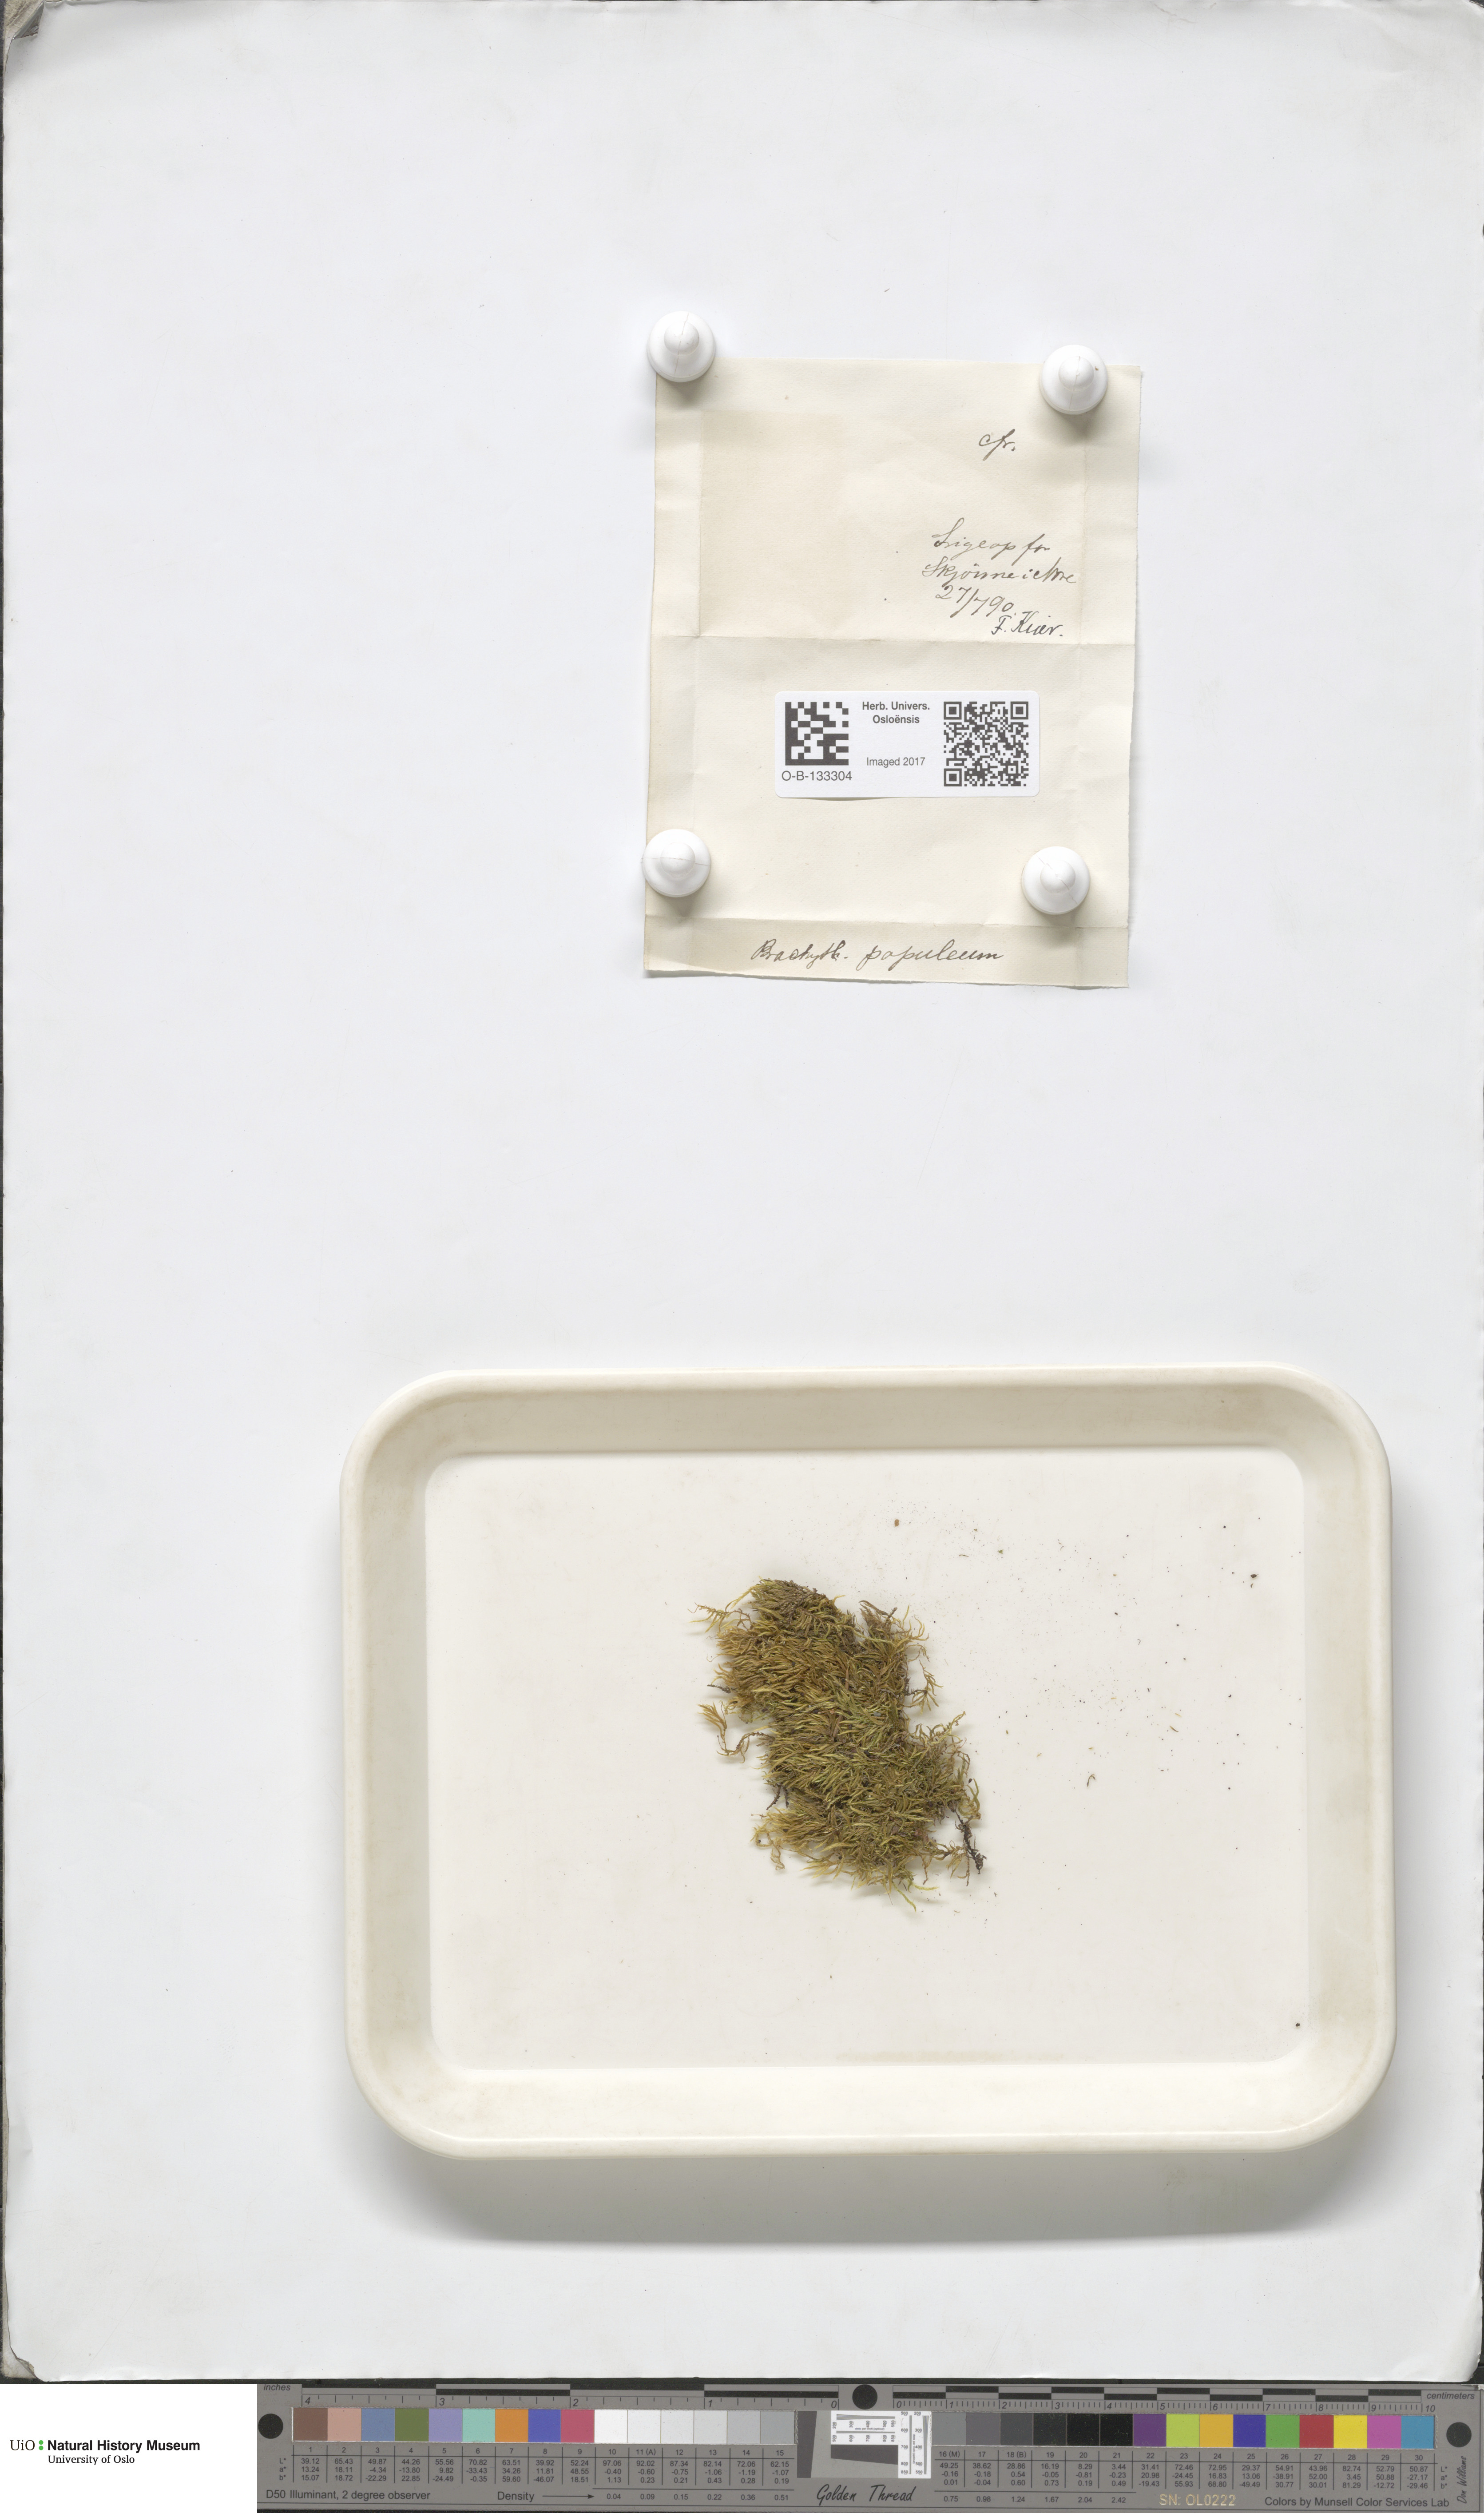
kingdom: Plantae
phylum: Bryophyta
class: Bryopsida
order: Hypnales
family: Brachytheciaceae
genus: Sciuro-hypnum
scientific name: Sciuro-hypnum plumosum
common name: Rusty feather-moss
